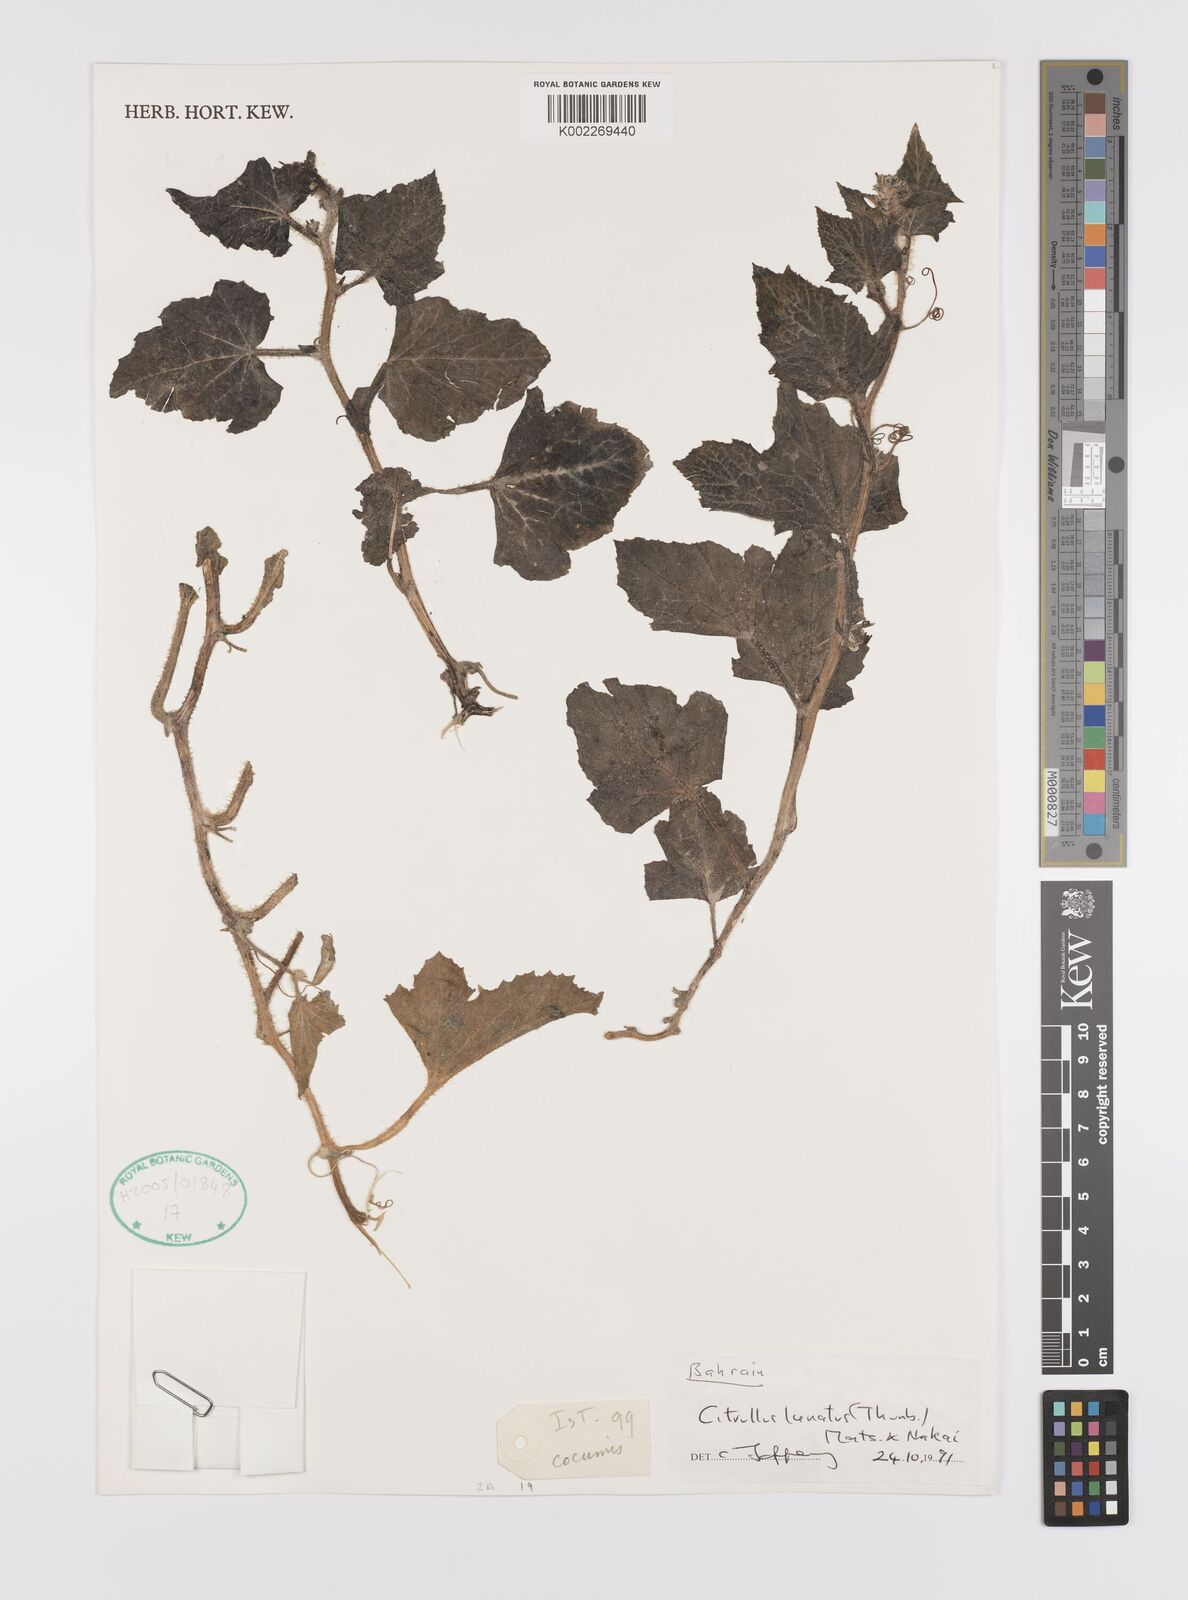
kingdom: Plantae
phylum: Tracheophyta
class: Magnoliopsida
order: Cucurbitales
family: Cucurbitaceae
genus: Citrullus
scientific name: Citrullus lanatus
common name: Watermelon
